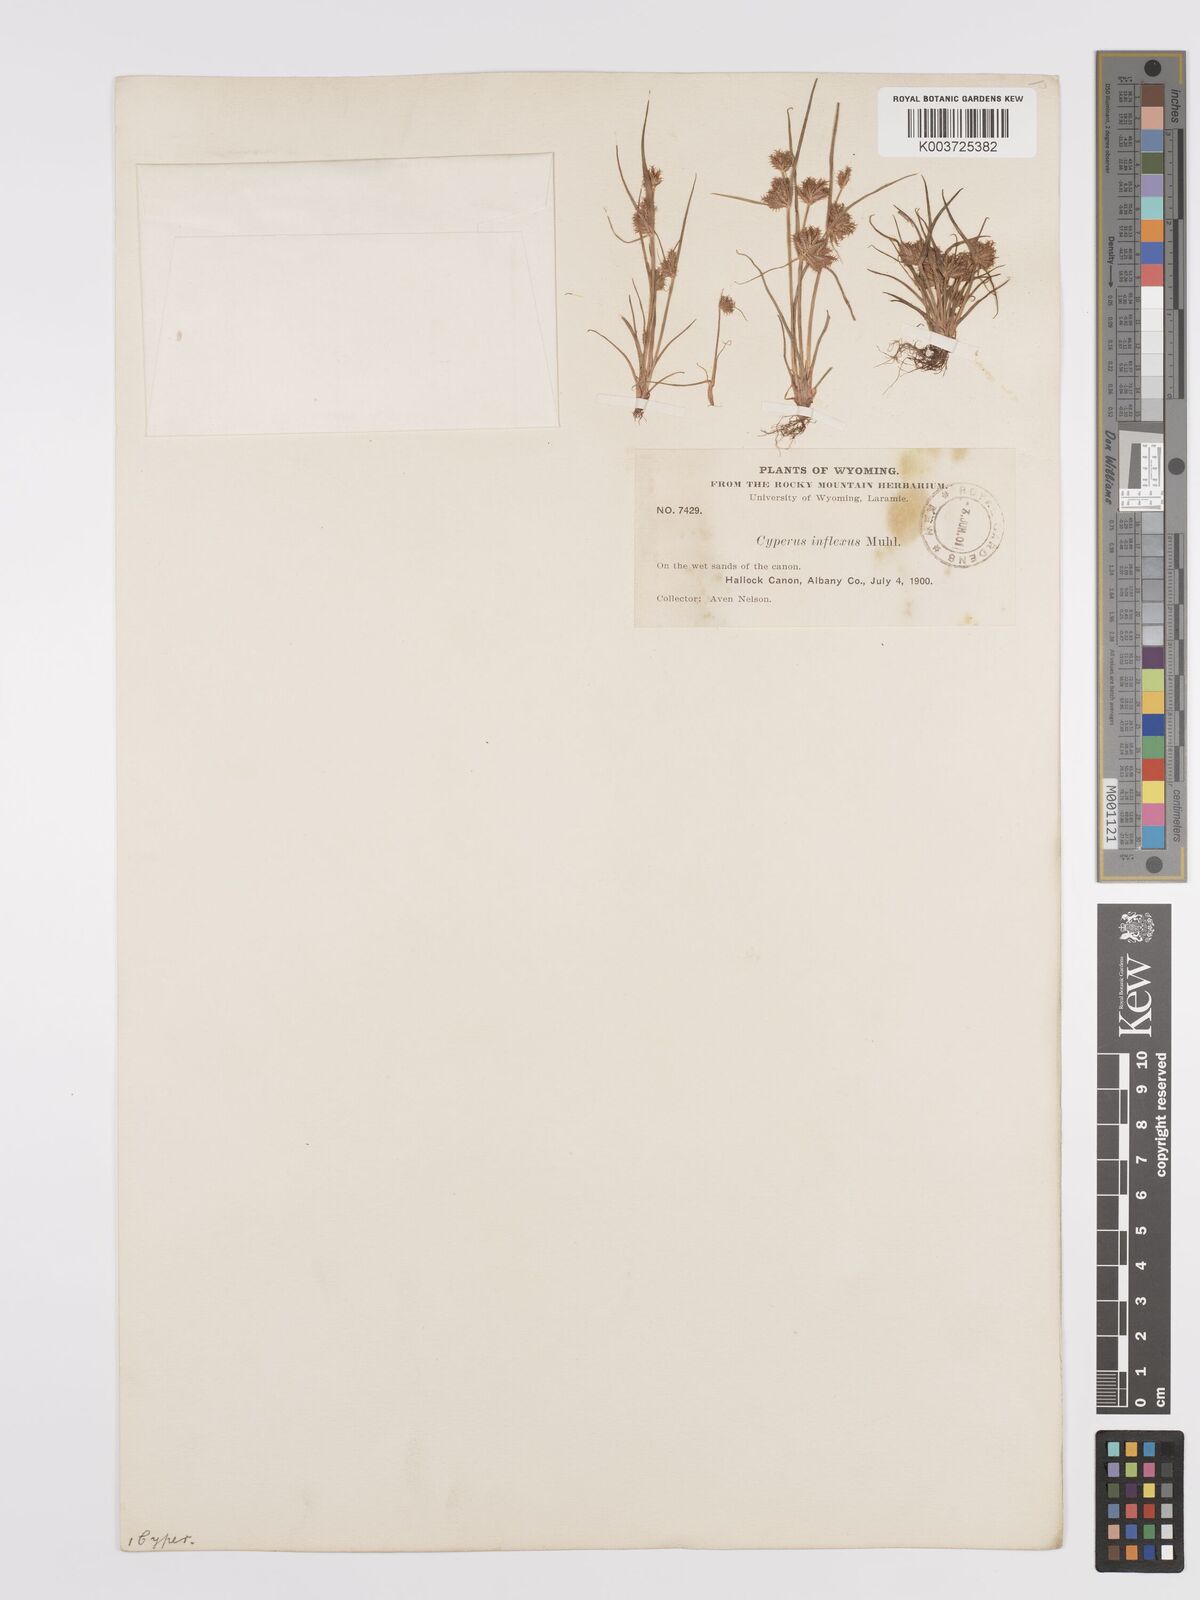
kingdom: Plantae
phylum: Tracheophyta
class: Liliopsida
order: Poales
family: Cyperaceae
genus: Cyperus
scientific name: Cyperus squarrosus
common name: Awned cyperus
